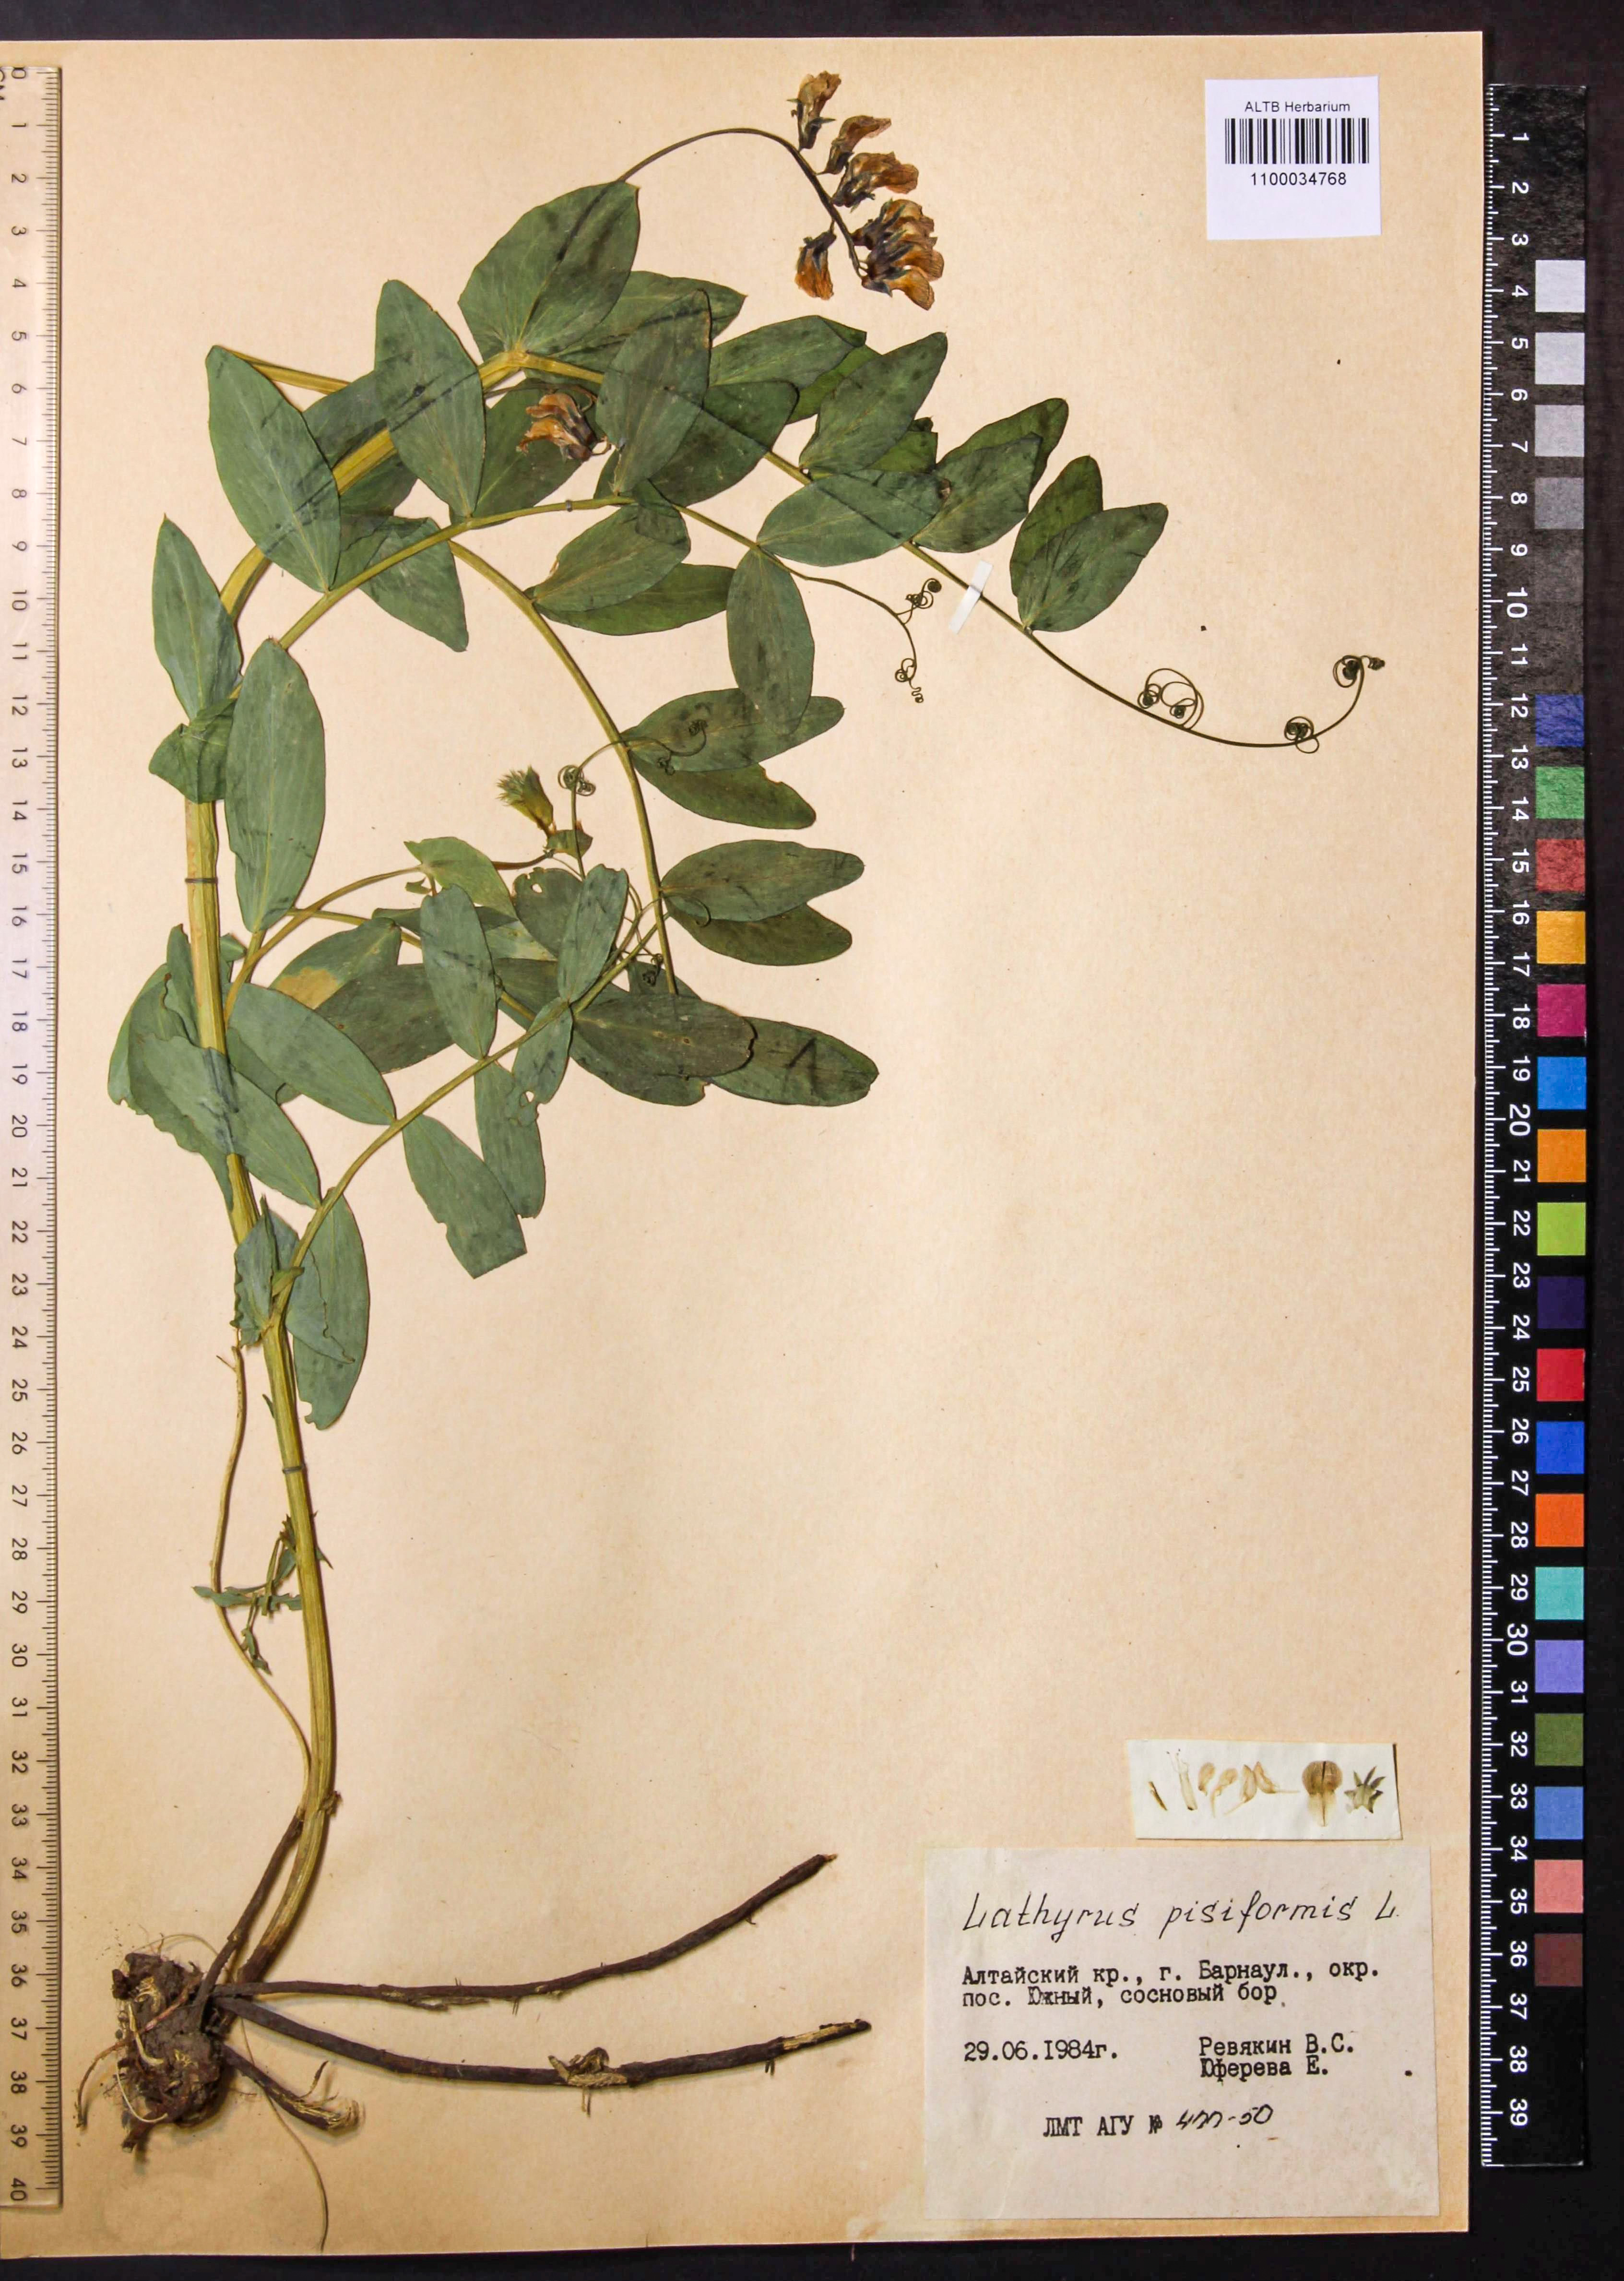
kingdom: Plantae
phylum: Tracheophyta
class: Magnoliopsida
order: Fabales
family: Fabaceae
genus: Lathyrus
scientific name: Lathyrus pisiformis
